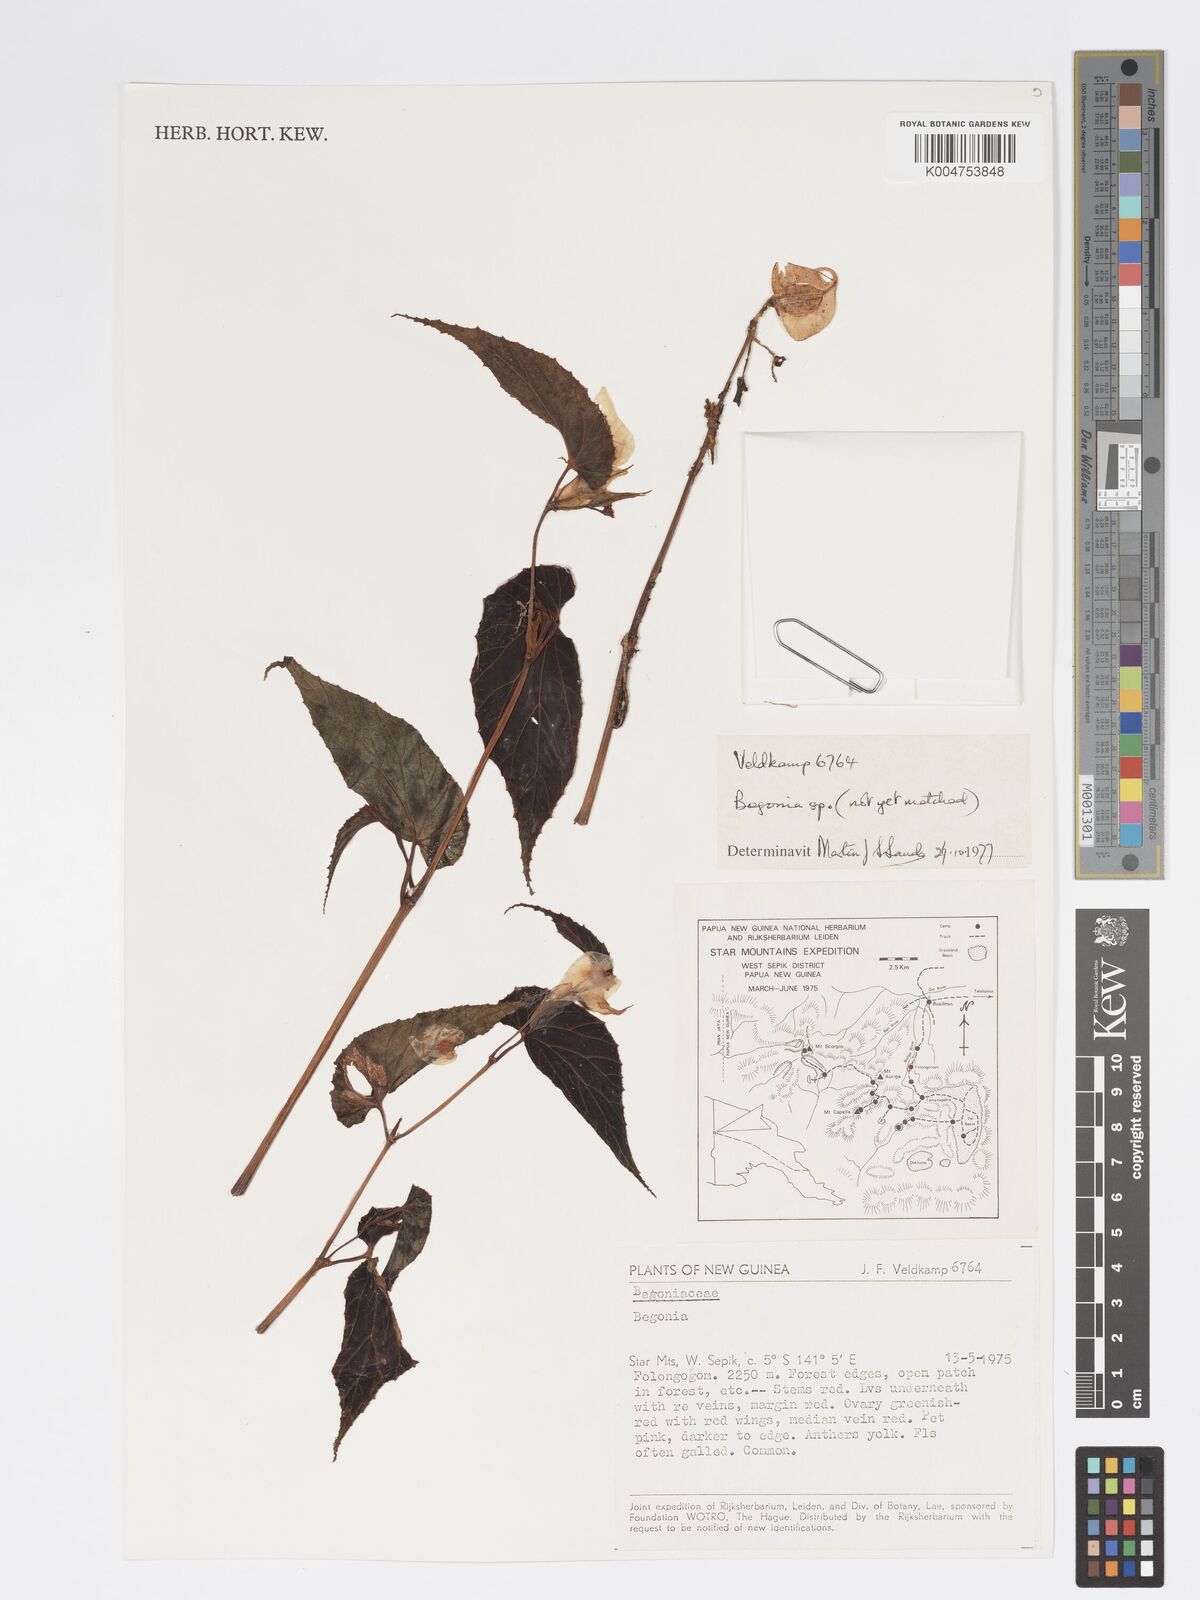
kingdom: Plantae
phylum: Tracheophyta
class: Magnoliopsida
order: Cucurbitales
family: Begoniaceae
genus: Begonia
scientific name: Begonia
